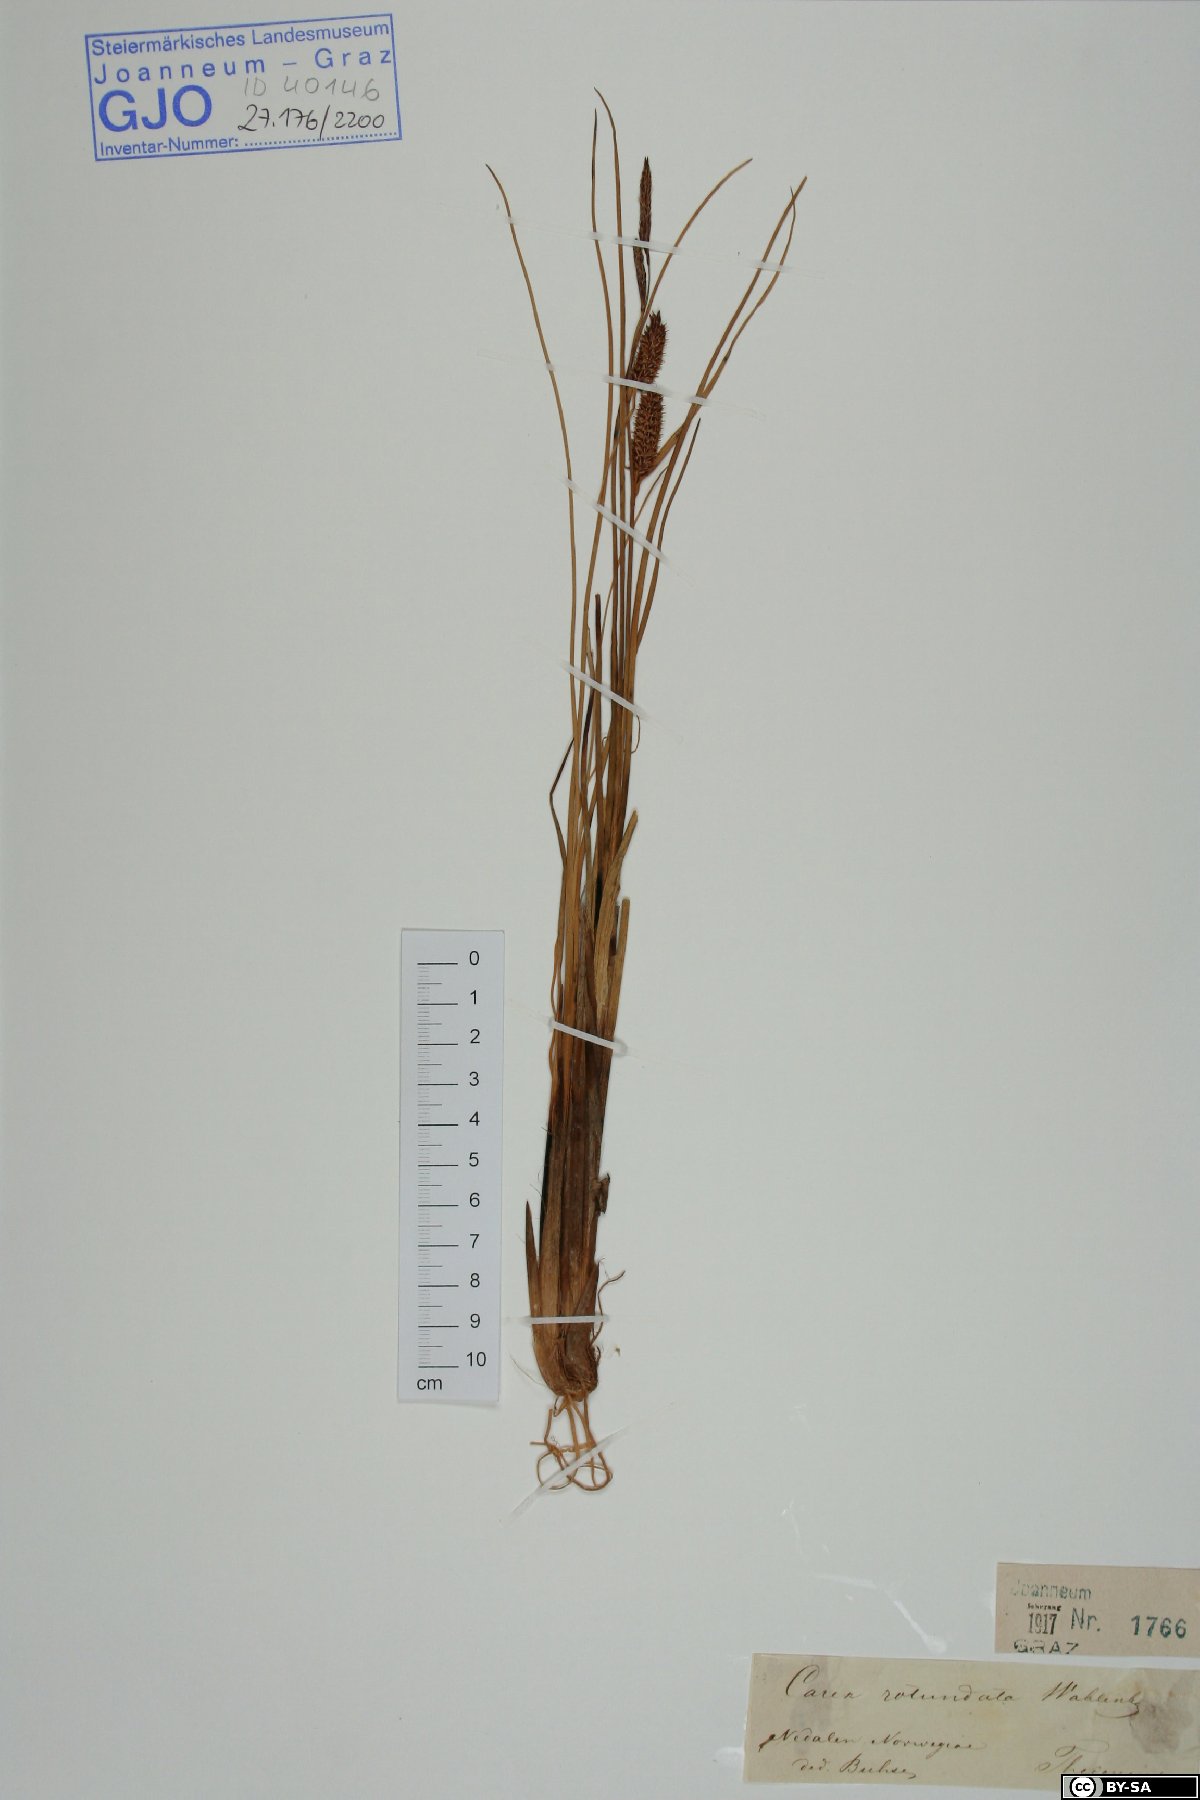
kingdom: Plantae
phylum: Tracheophyta
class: Liliopsida
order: Poales
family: Cyperaceae
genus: Carex
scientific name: Carex rotundata
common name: Round-fruited sedge
